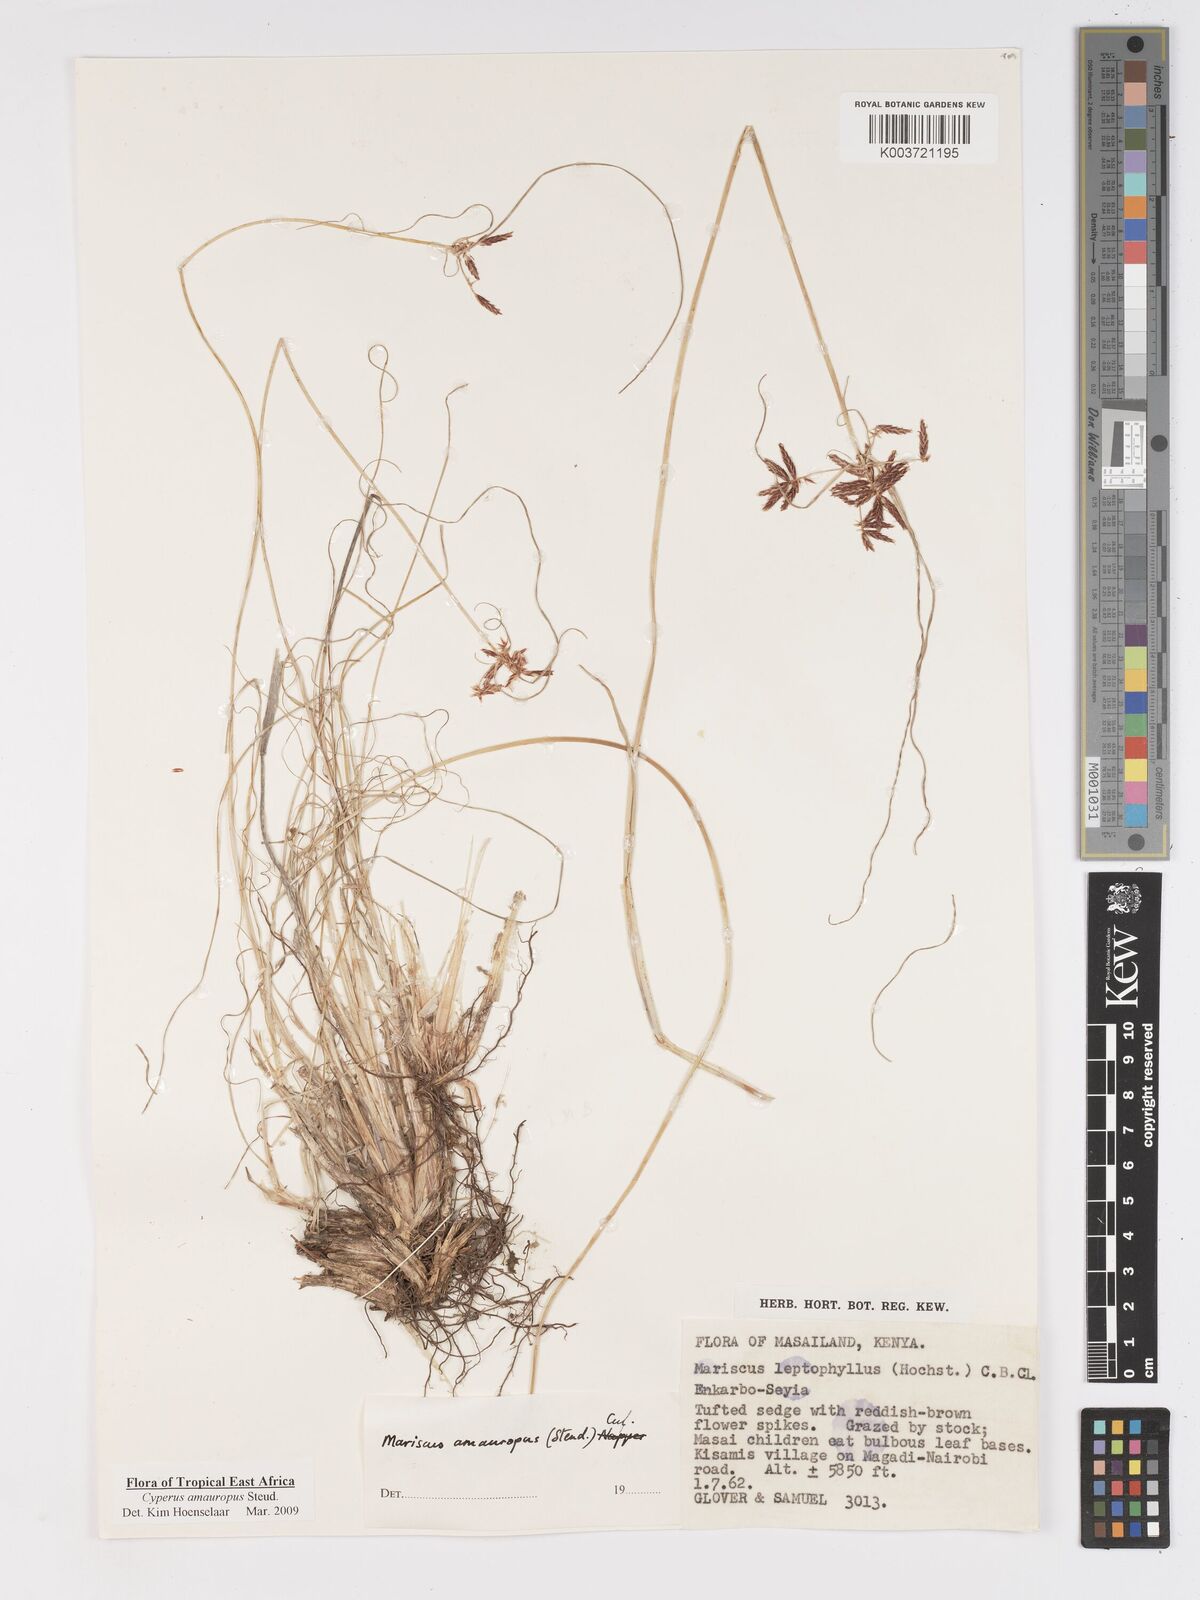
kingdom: Plantae
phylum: Tracheophyta
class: Liliopsida
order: Poales
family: Cyperaceae
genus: Cyperus
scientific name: Cyperus amauropus
